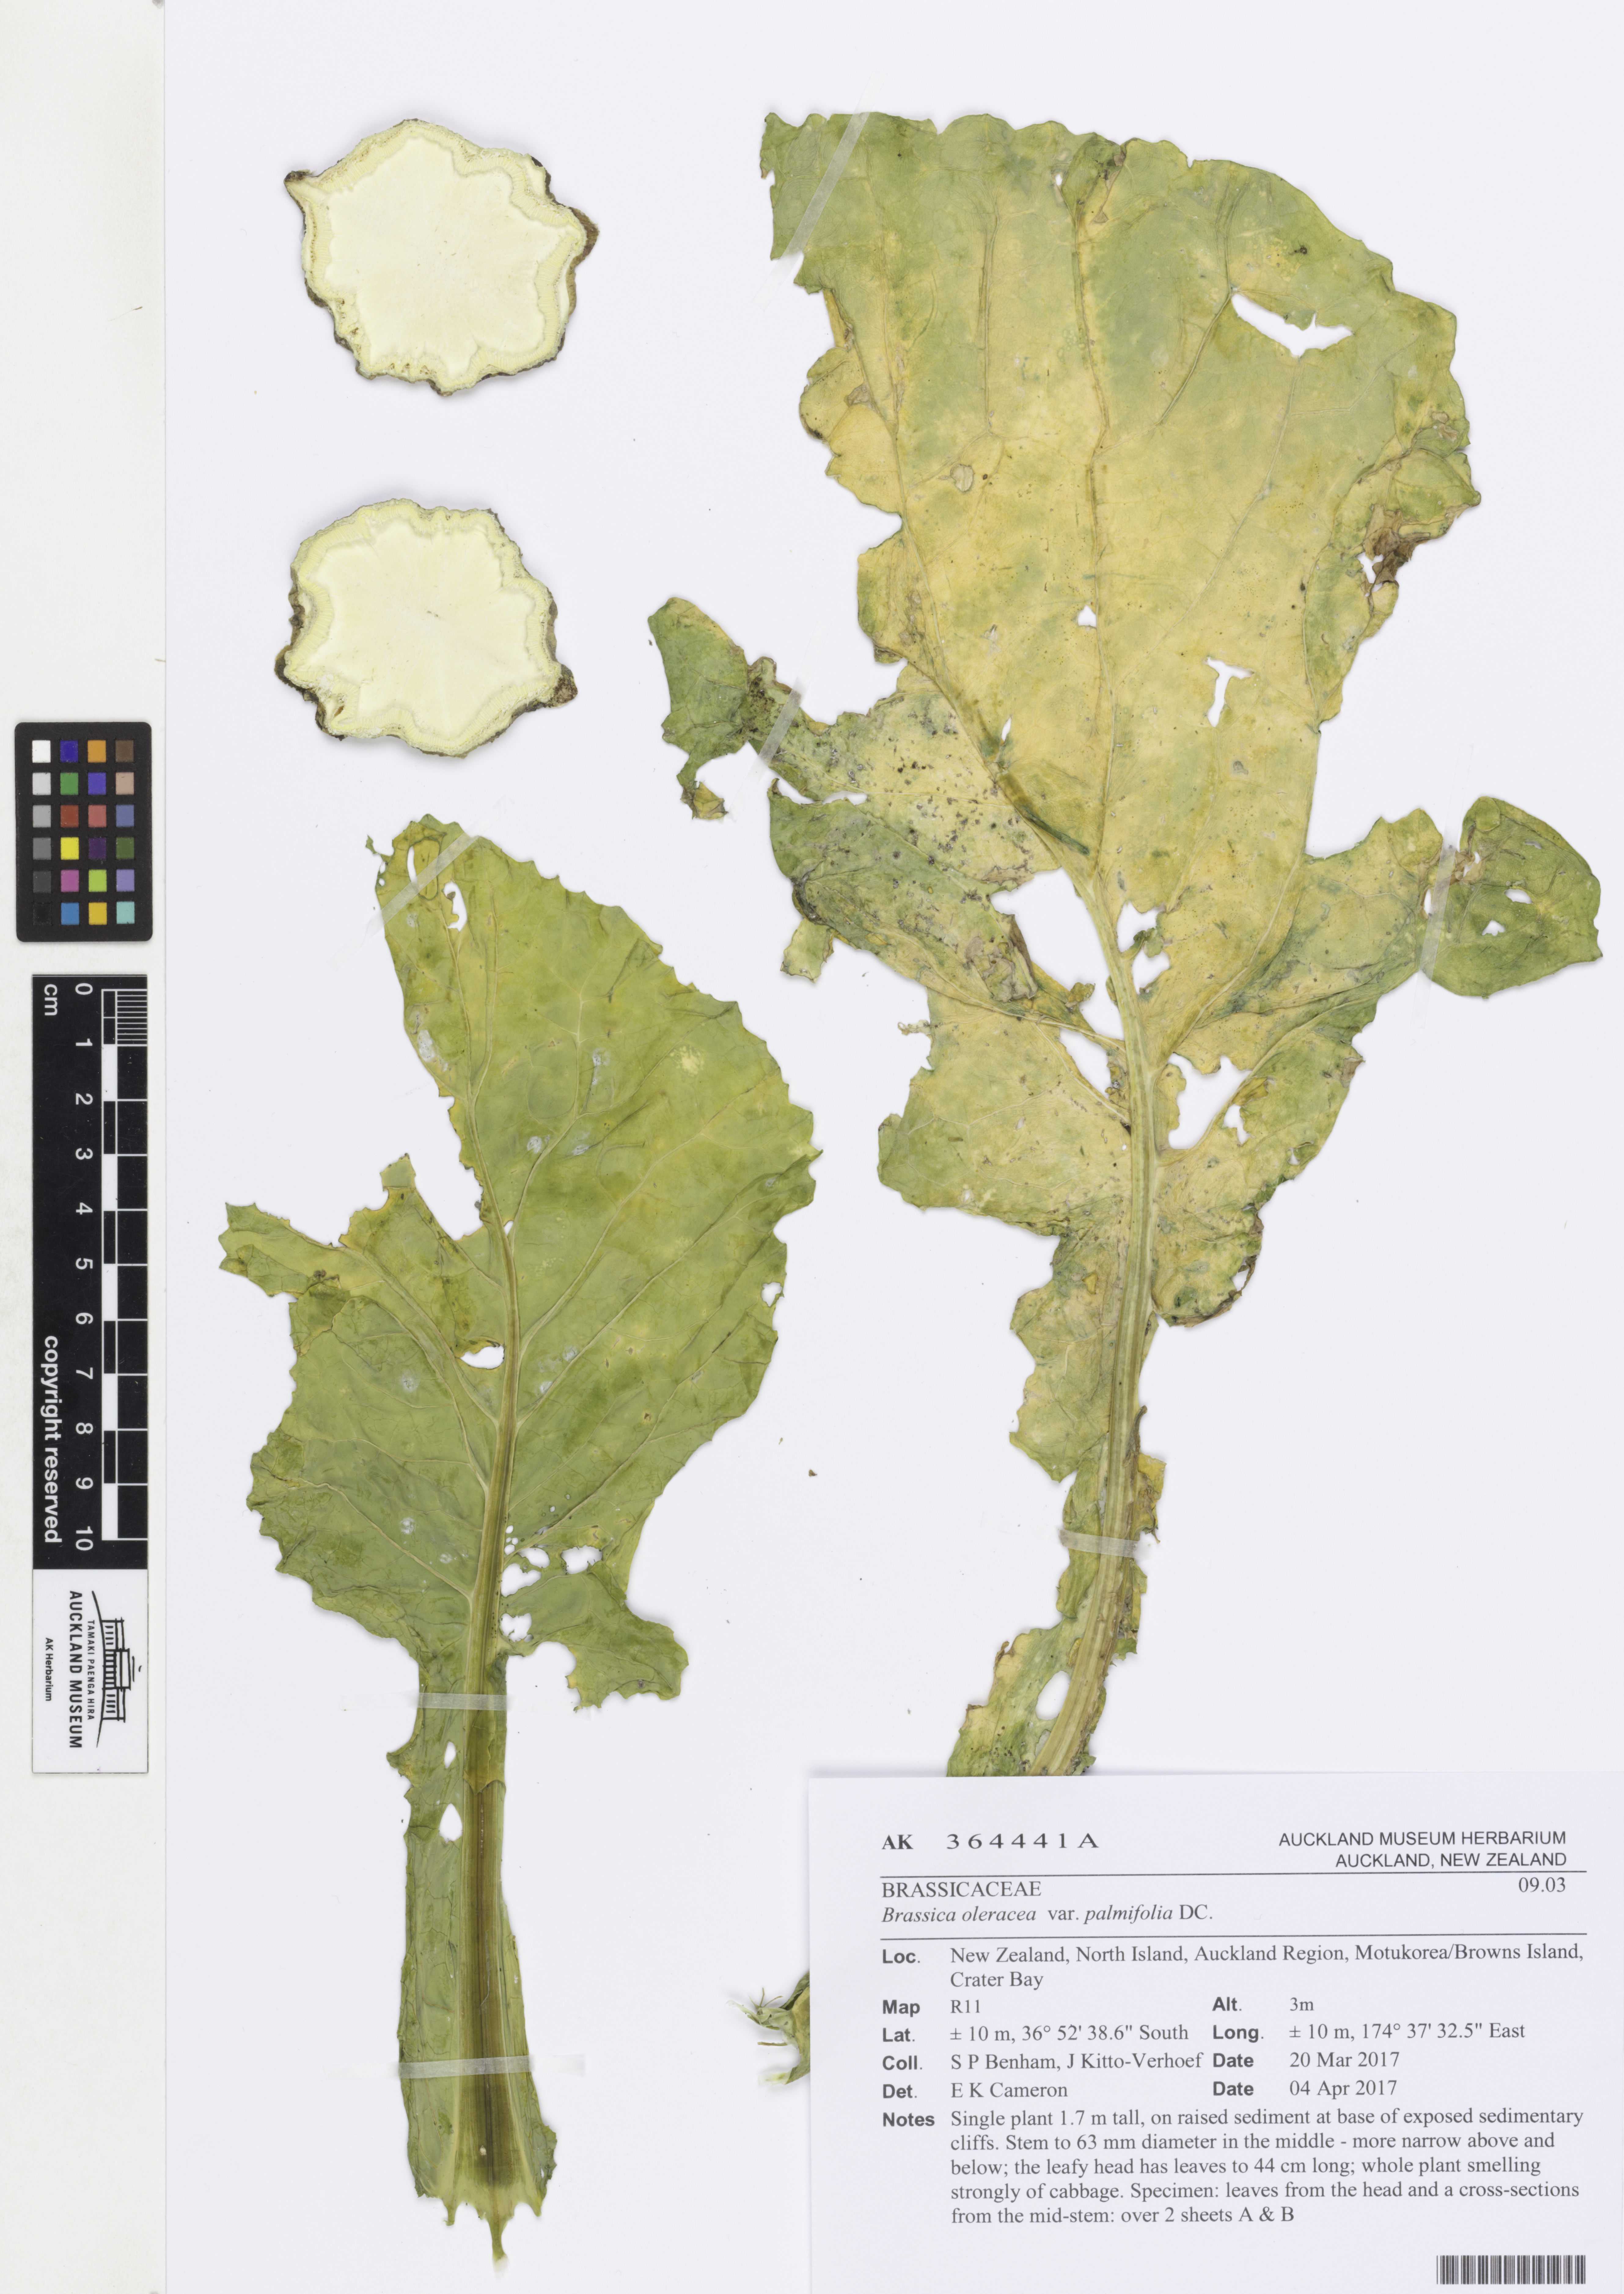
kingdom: Plantae
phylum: Tracheophyta
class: Magnoliopsida
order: Brassicales
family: Brassicaceae
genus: Brassica
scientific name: Brassica oleracea
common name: Cabbage
